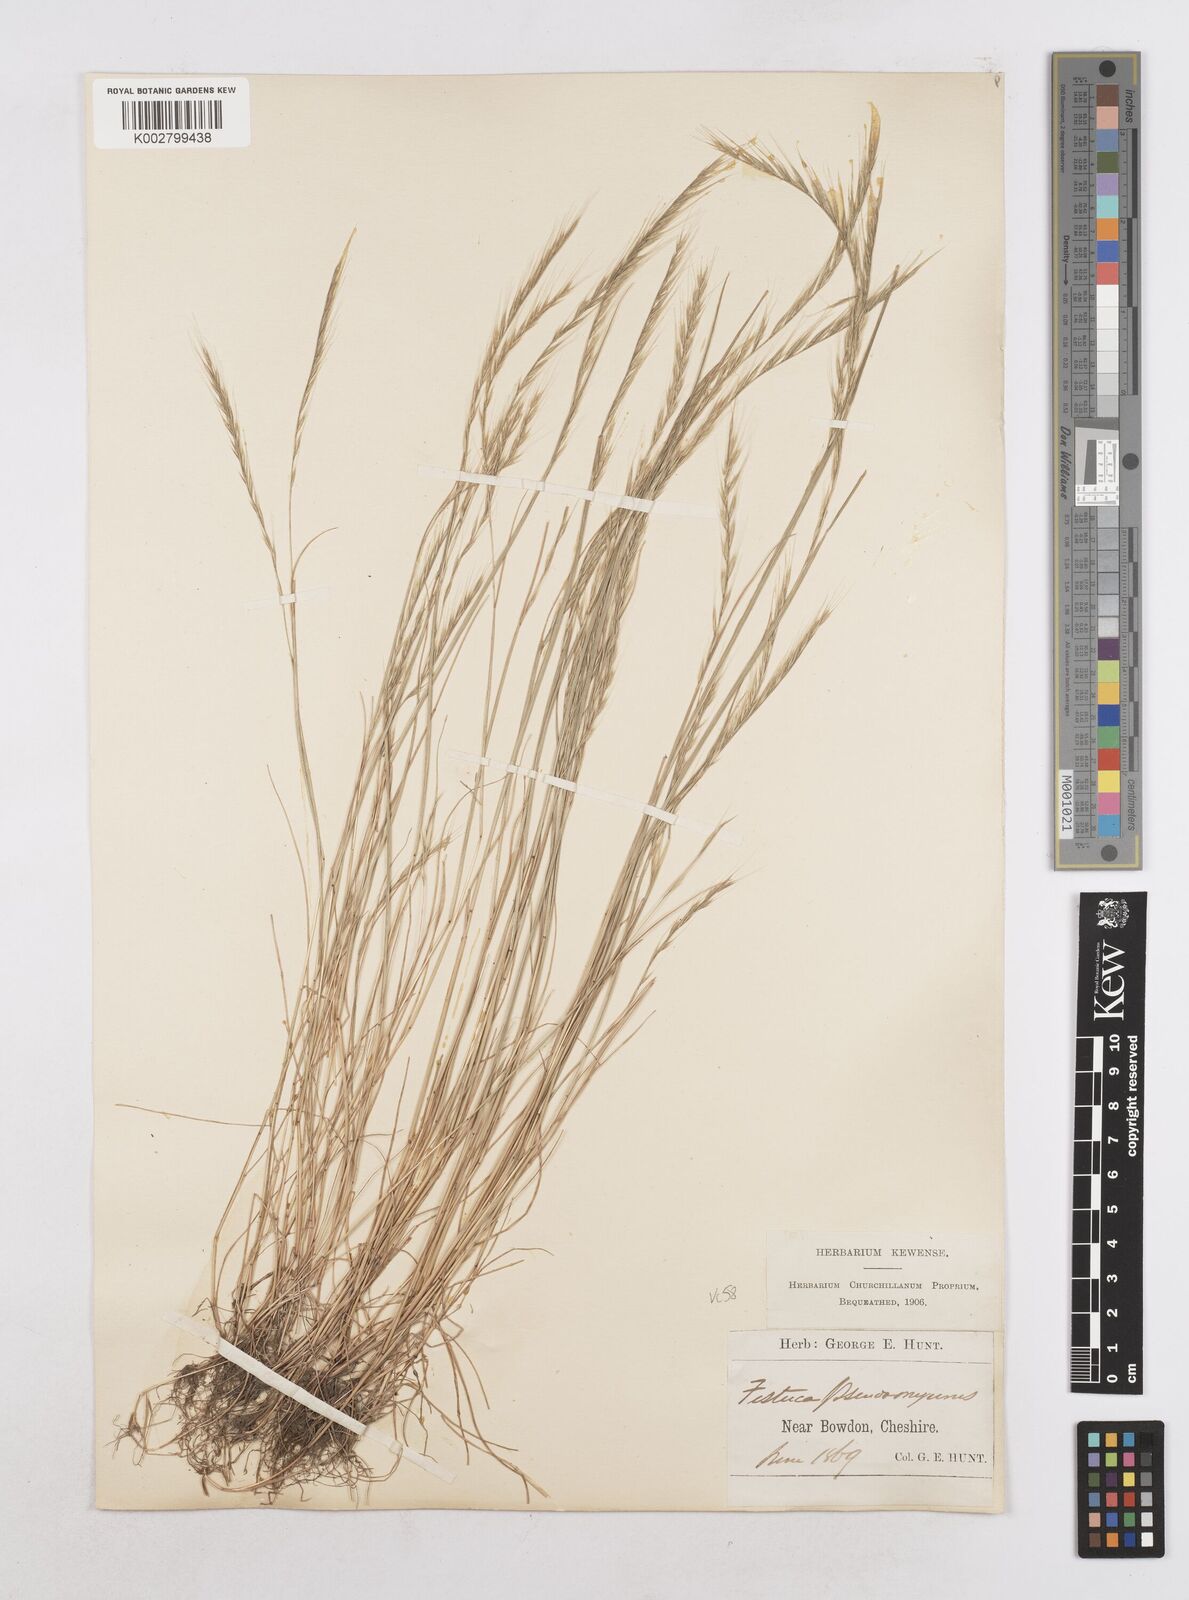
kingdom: Plantae
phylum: Tracheophyta
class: Liliopsida
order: Poales
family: Poaceae
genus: Festuca
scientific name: Festuca myuros
